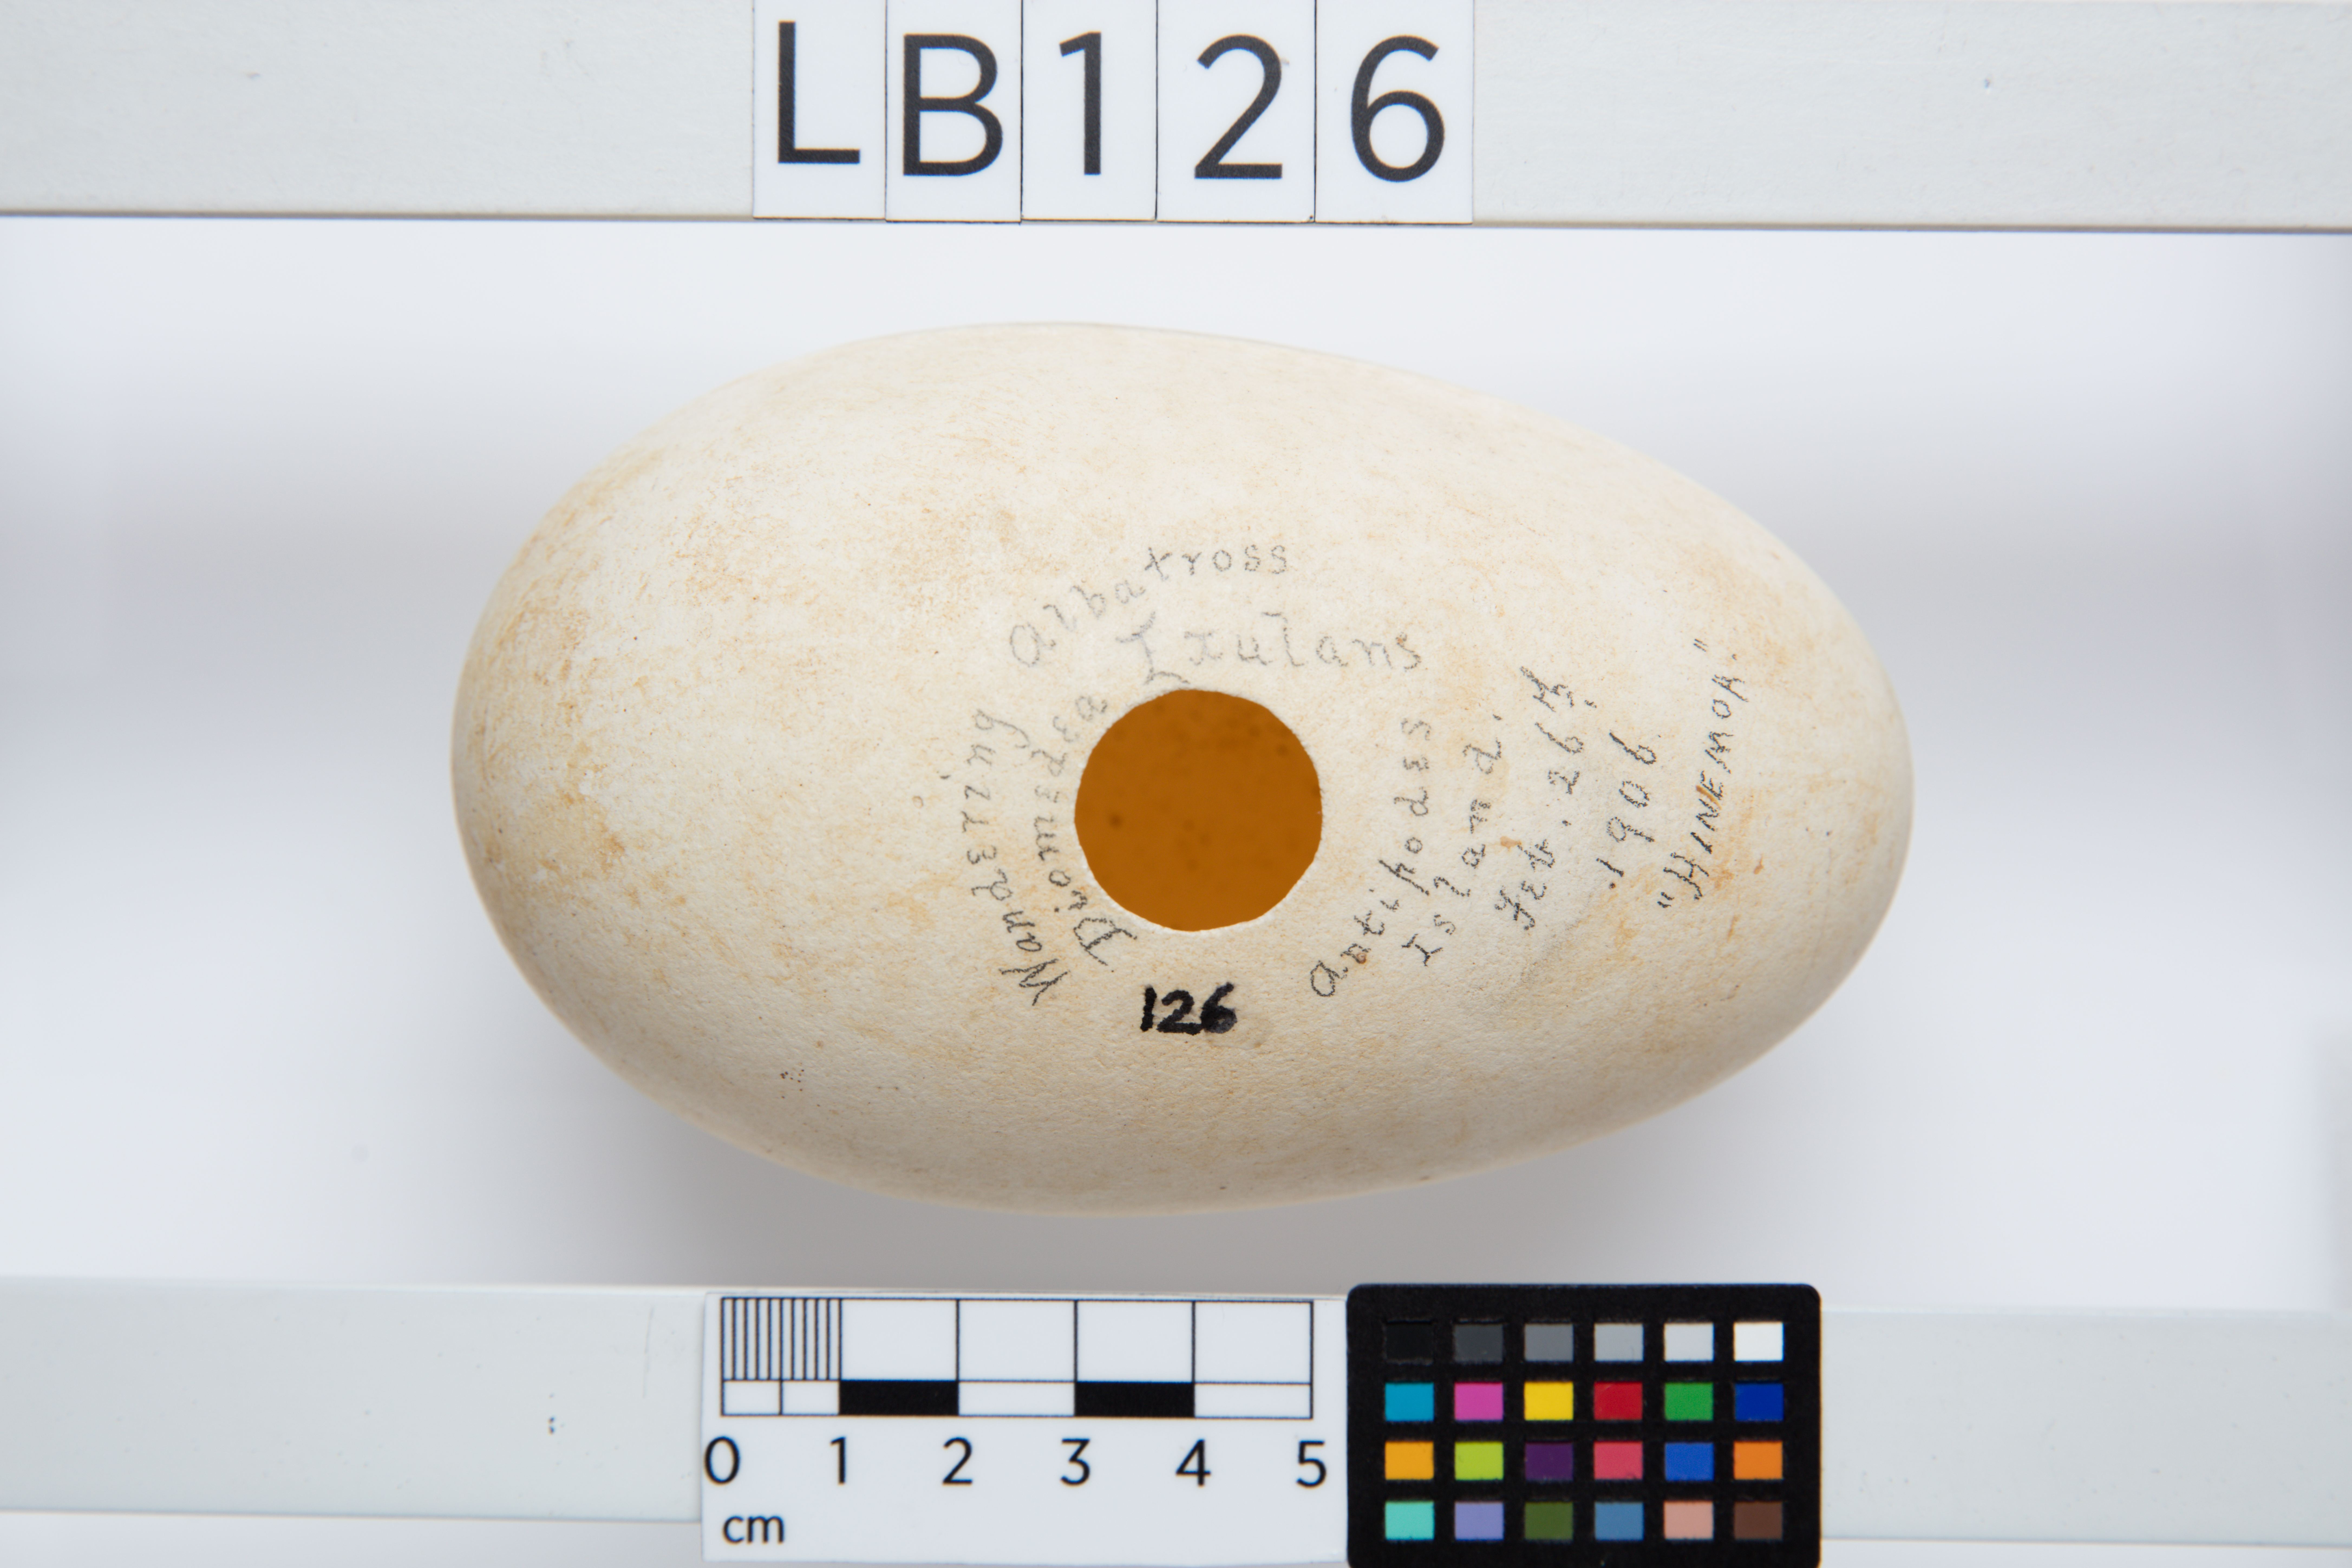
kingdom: Animalia
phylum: Chordata
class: Aves
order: Procellariiformes
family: Diomedeidae
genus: Diomedea
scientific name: Diomedea antipodensis
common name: Antipodean albatross
